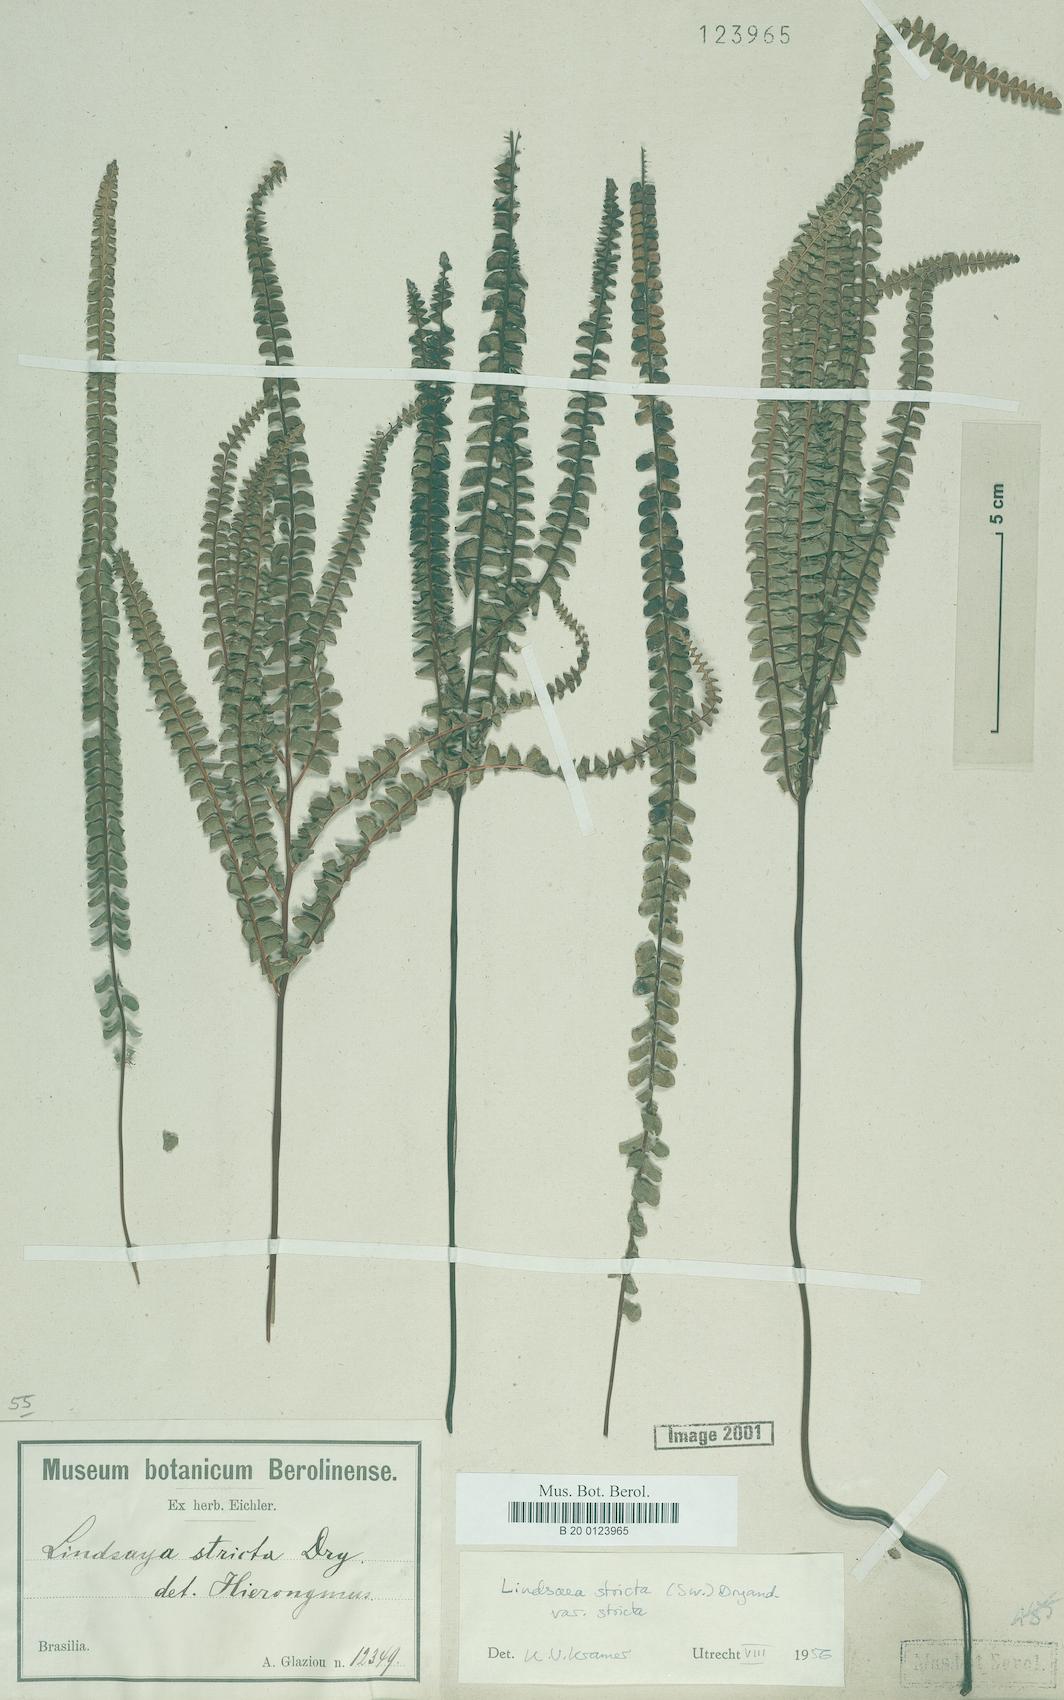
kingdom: Plantae
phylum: Tracheophyta
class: Polypodiopsida
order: Polypodiales
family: Lindsaeaceae
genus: Lindsaea
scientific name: Lindsaea stricta
